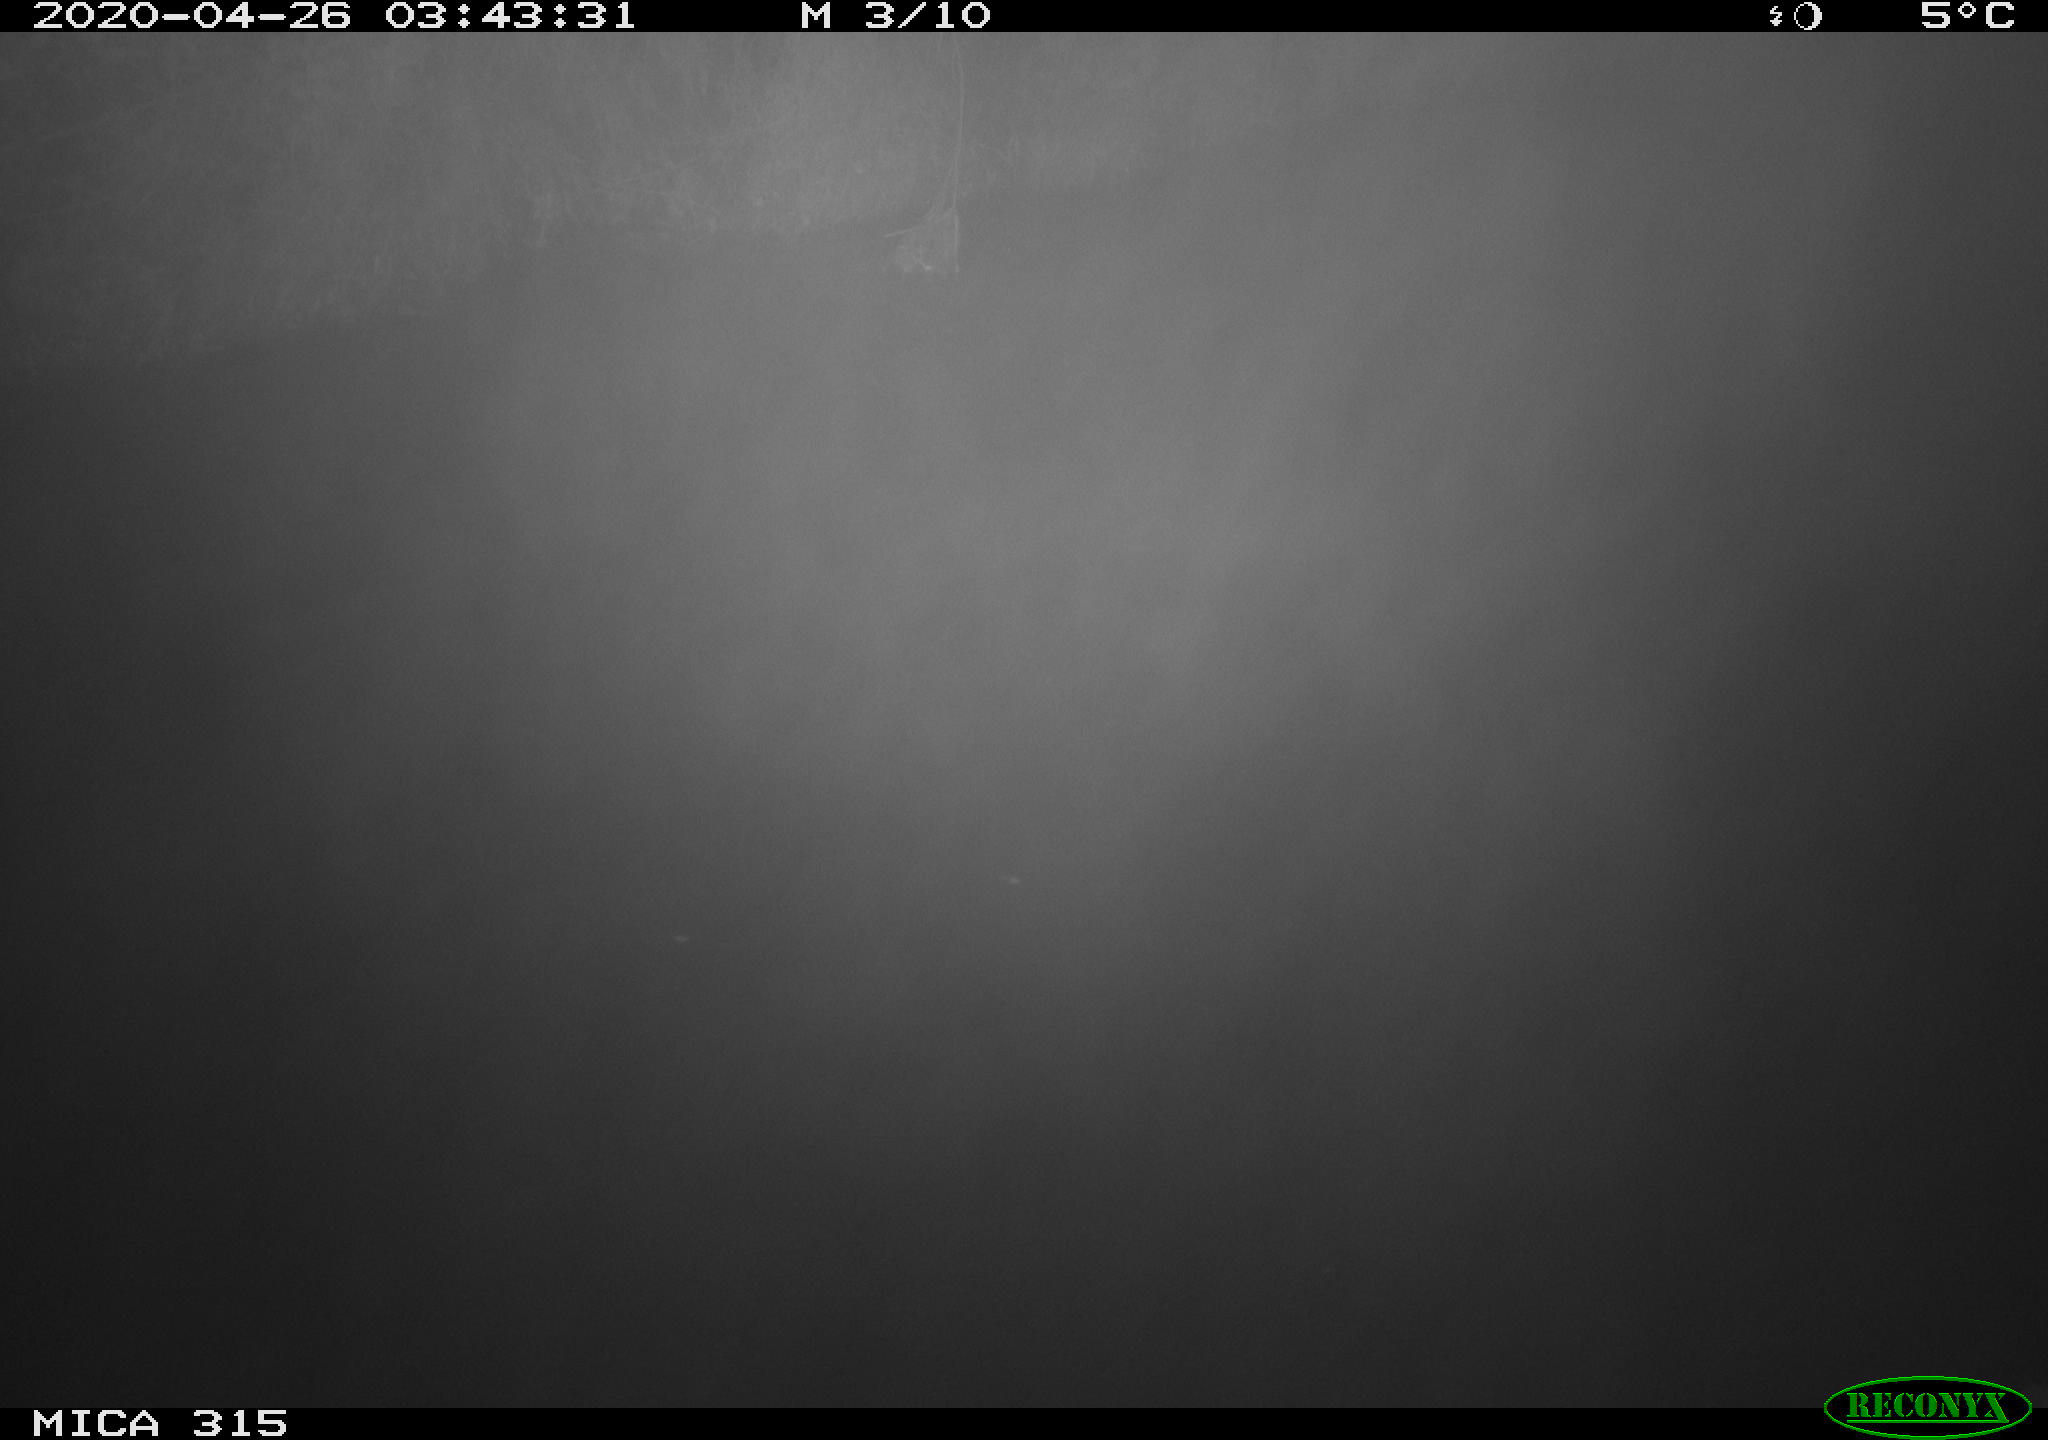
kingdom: Animalia
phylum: Chordata
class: Aves
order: Anseriformes
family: Anatidae
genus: Anas
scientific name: Anas platyrhynchos
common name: Mallard
